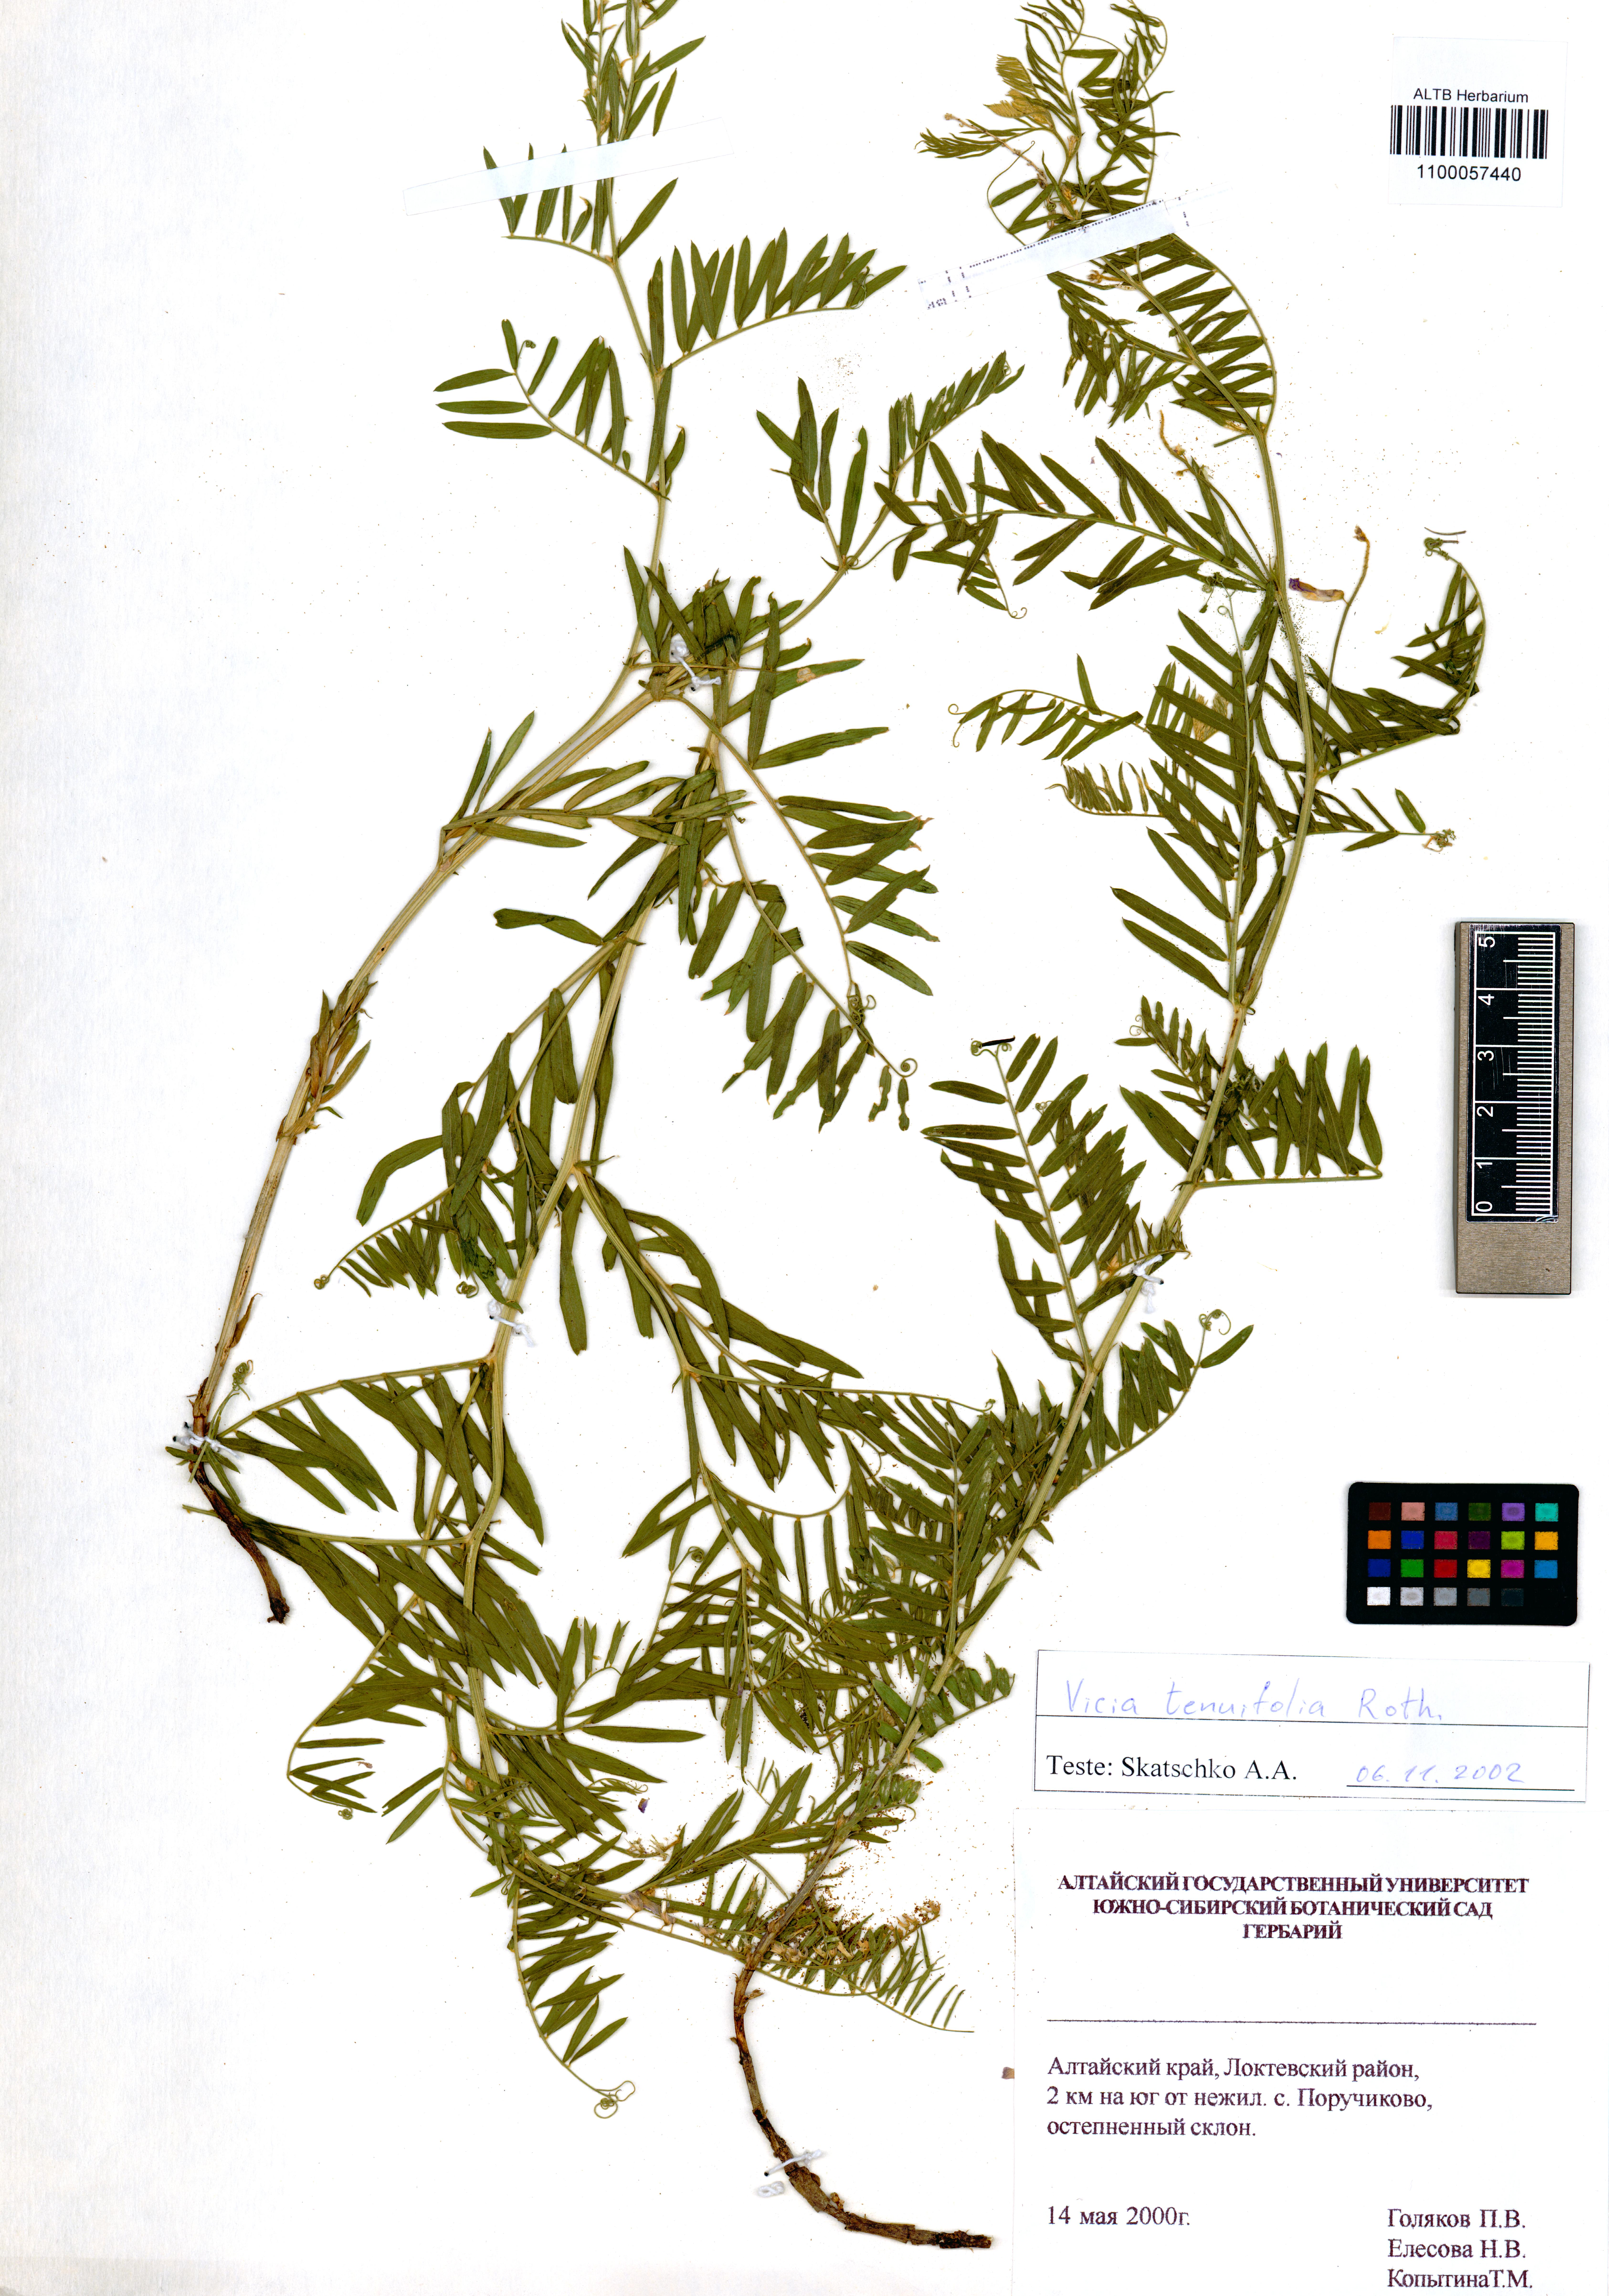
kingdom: Plantae
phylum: Tracheophyta
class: Magnoliopsida
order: Fabales
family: Fabaceae
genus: Vicia
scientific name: Vicia tenuifolia
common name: Fine-leaved vetch
